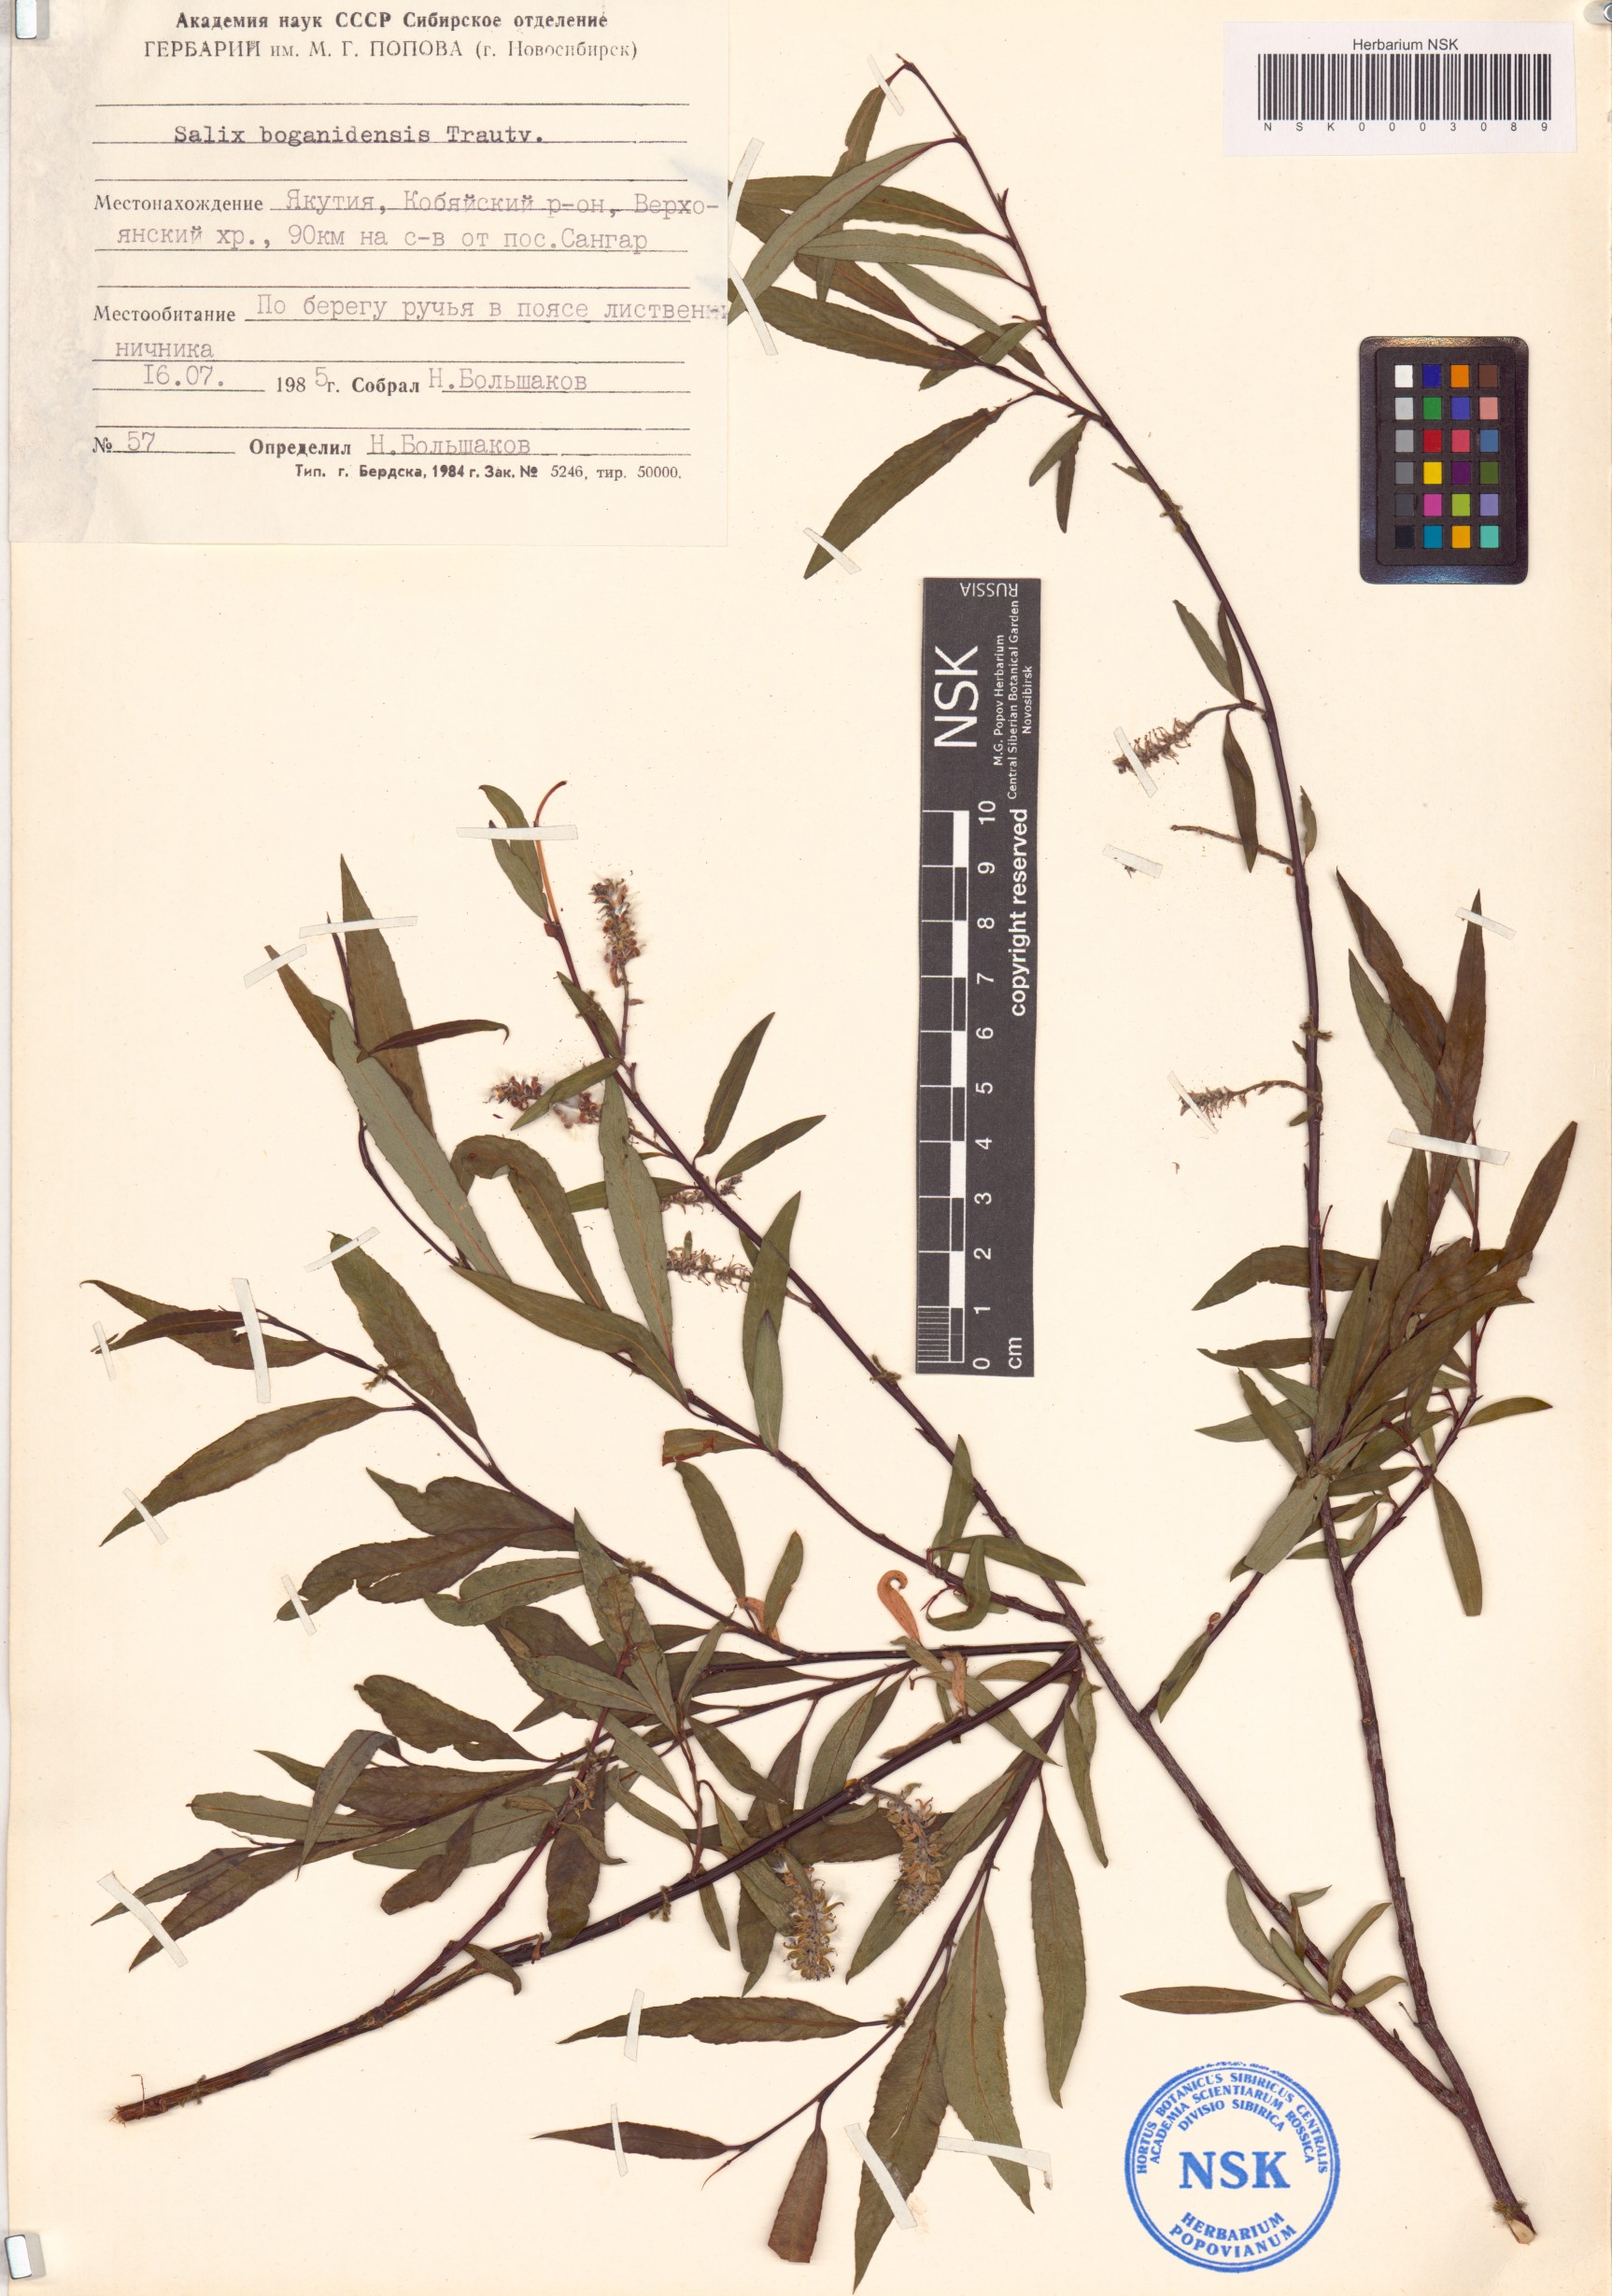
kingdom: Plantae
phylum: Tracheophyta
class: Magnoliopsida
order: Malpighiales
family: Salicaceae
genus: Salix
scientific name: Salix boganidensis
